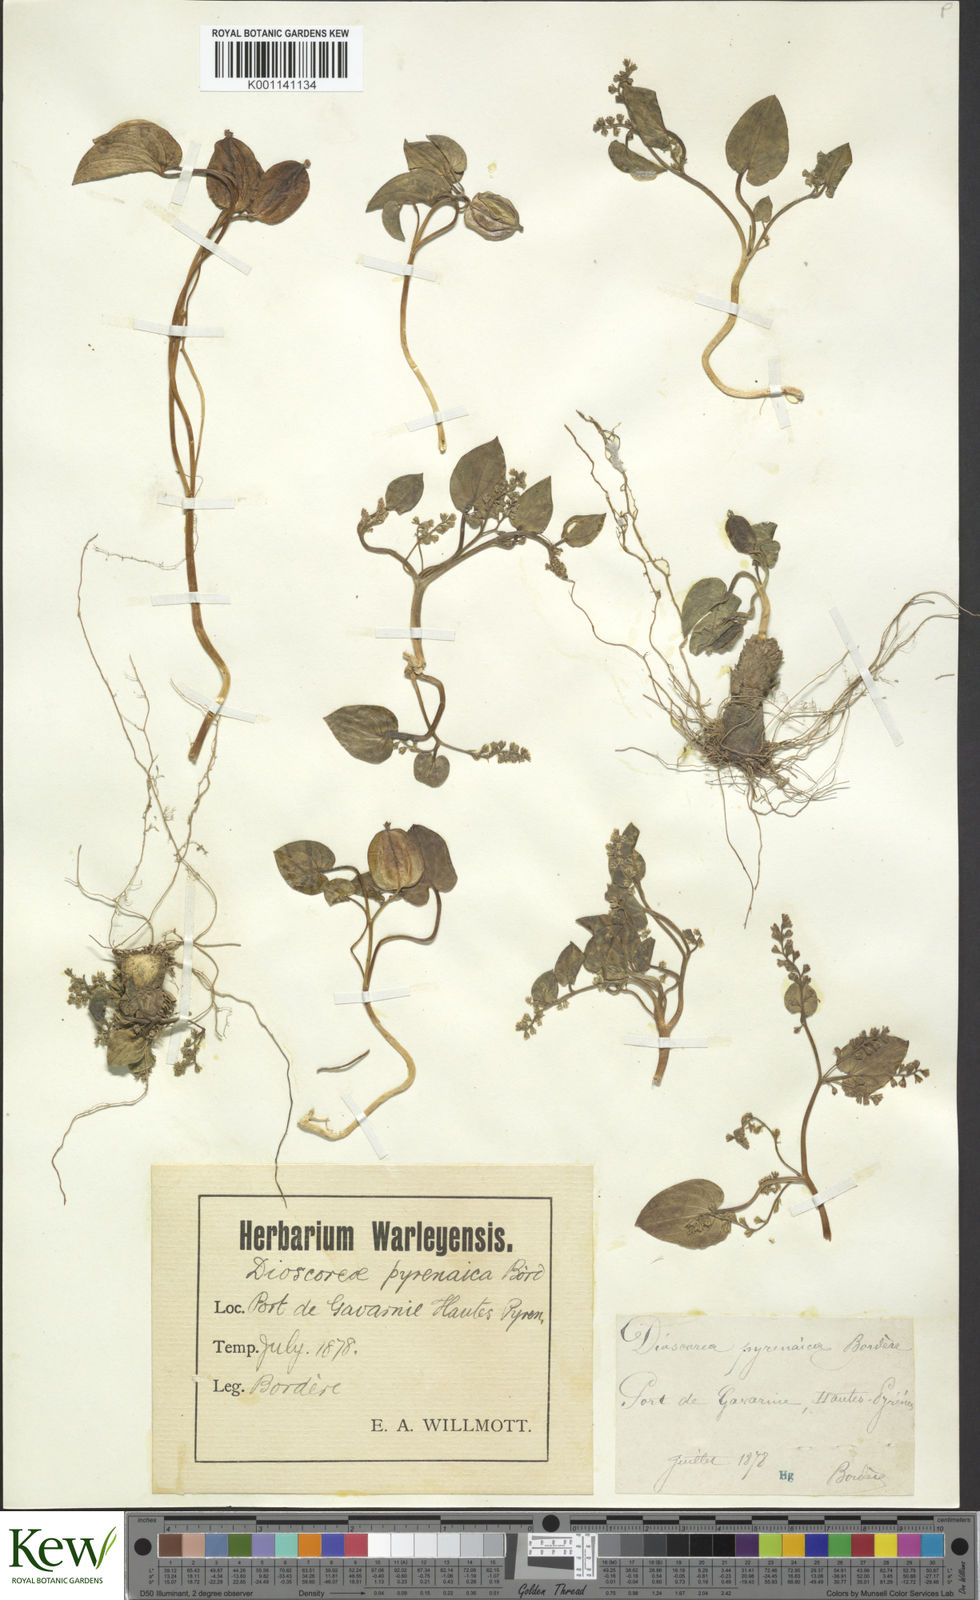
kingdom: Plantae
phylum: Tracheophyta
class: Liliopsida
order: Dioscoreales
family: Dioscoreaceae
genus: Dioscorea
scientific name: Dioscorea
